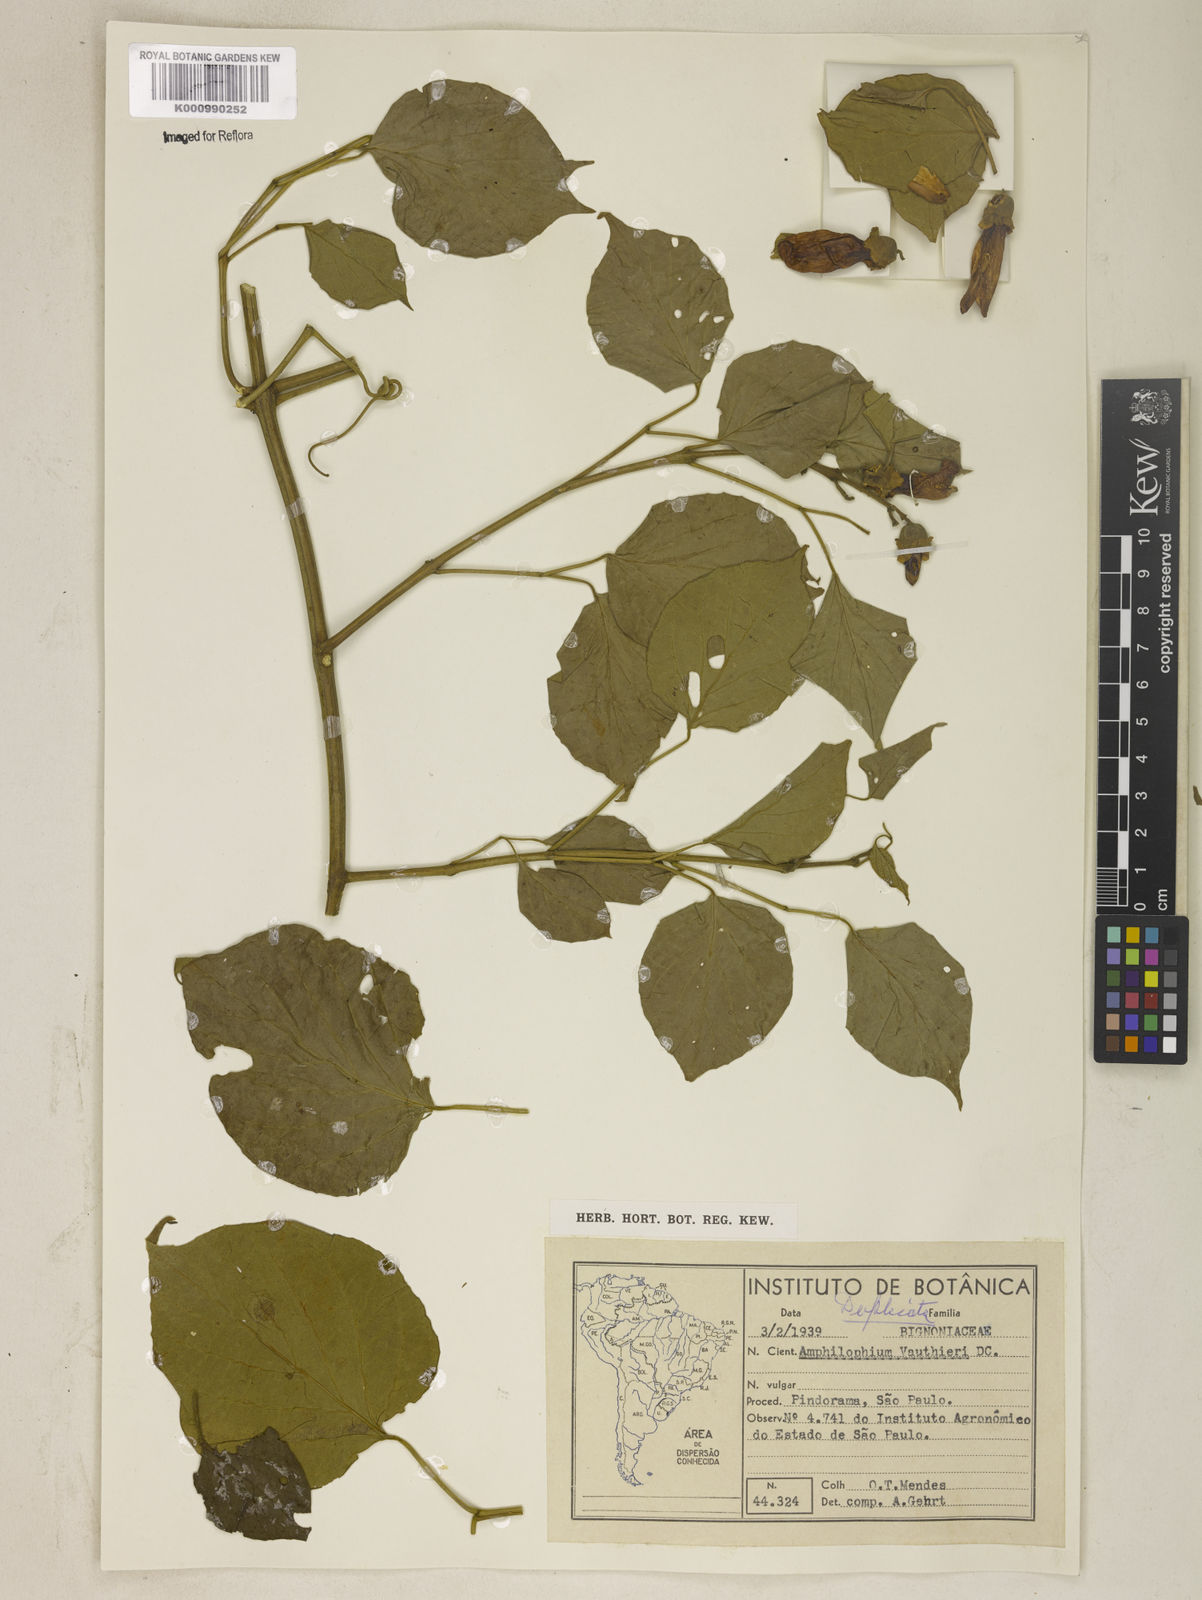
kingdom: Plantae
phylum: Tracheophyta
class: Magnoliopsida
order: Lamiales
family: Bignoniaceae
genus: Amphilophium
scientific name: Amphilophium paniculatum
